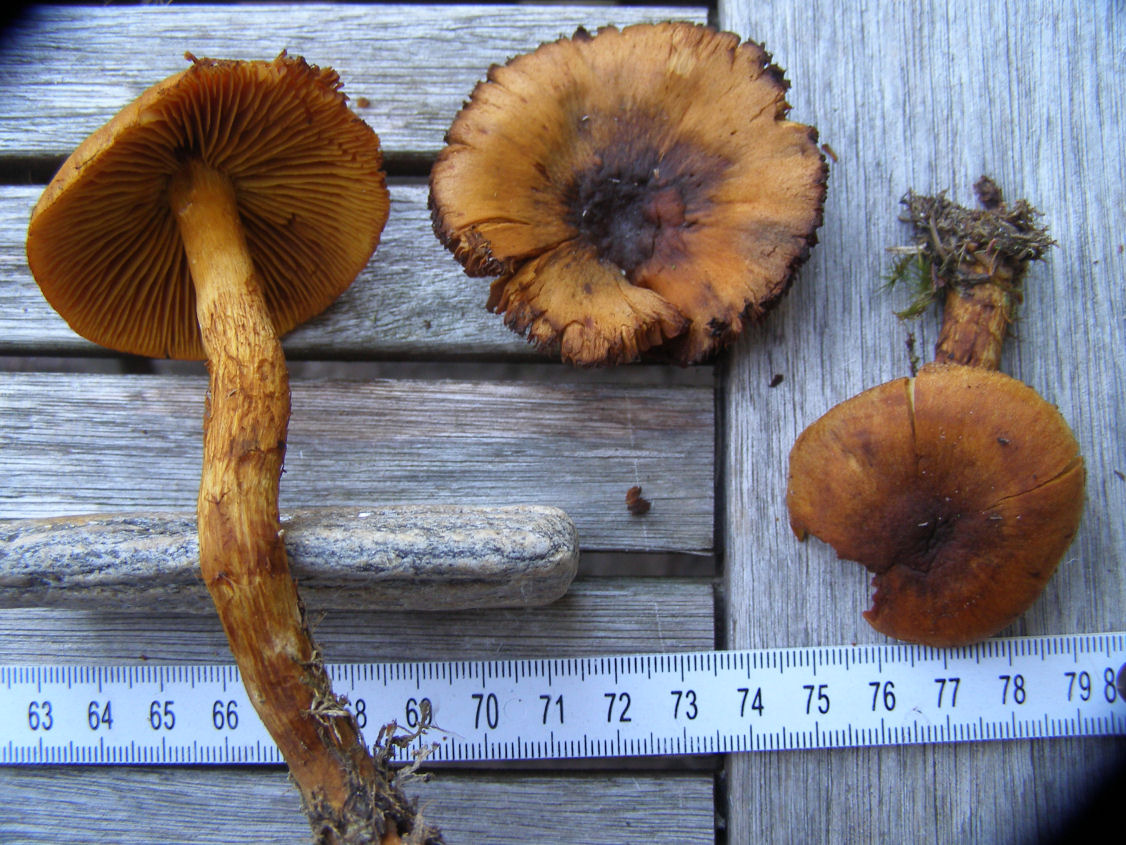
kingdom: Fungi
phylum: Basidiomycota
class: Agaricomycetes
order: Agaricales
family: Cortinariaceae
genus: Aureonarius
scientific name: Aureonarius limonius
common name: orangegul slørhat
